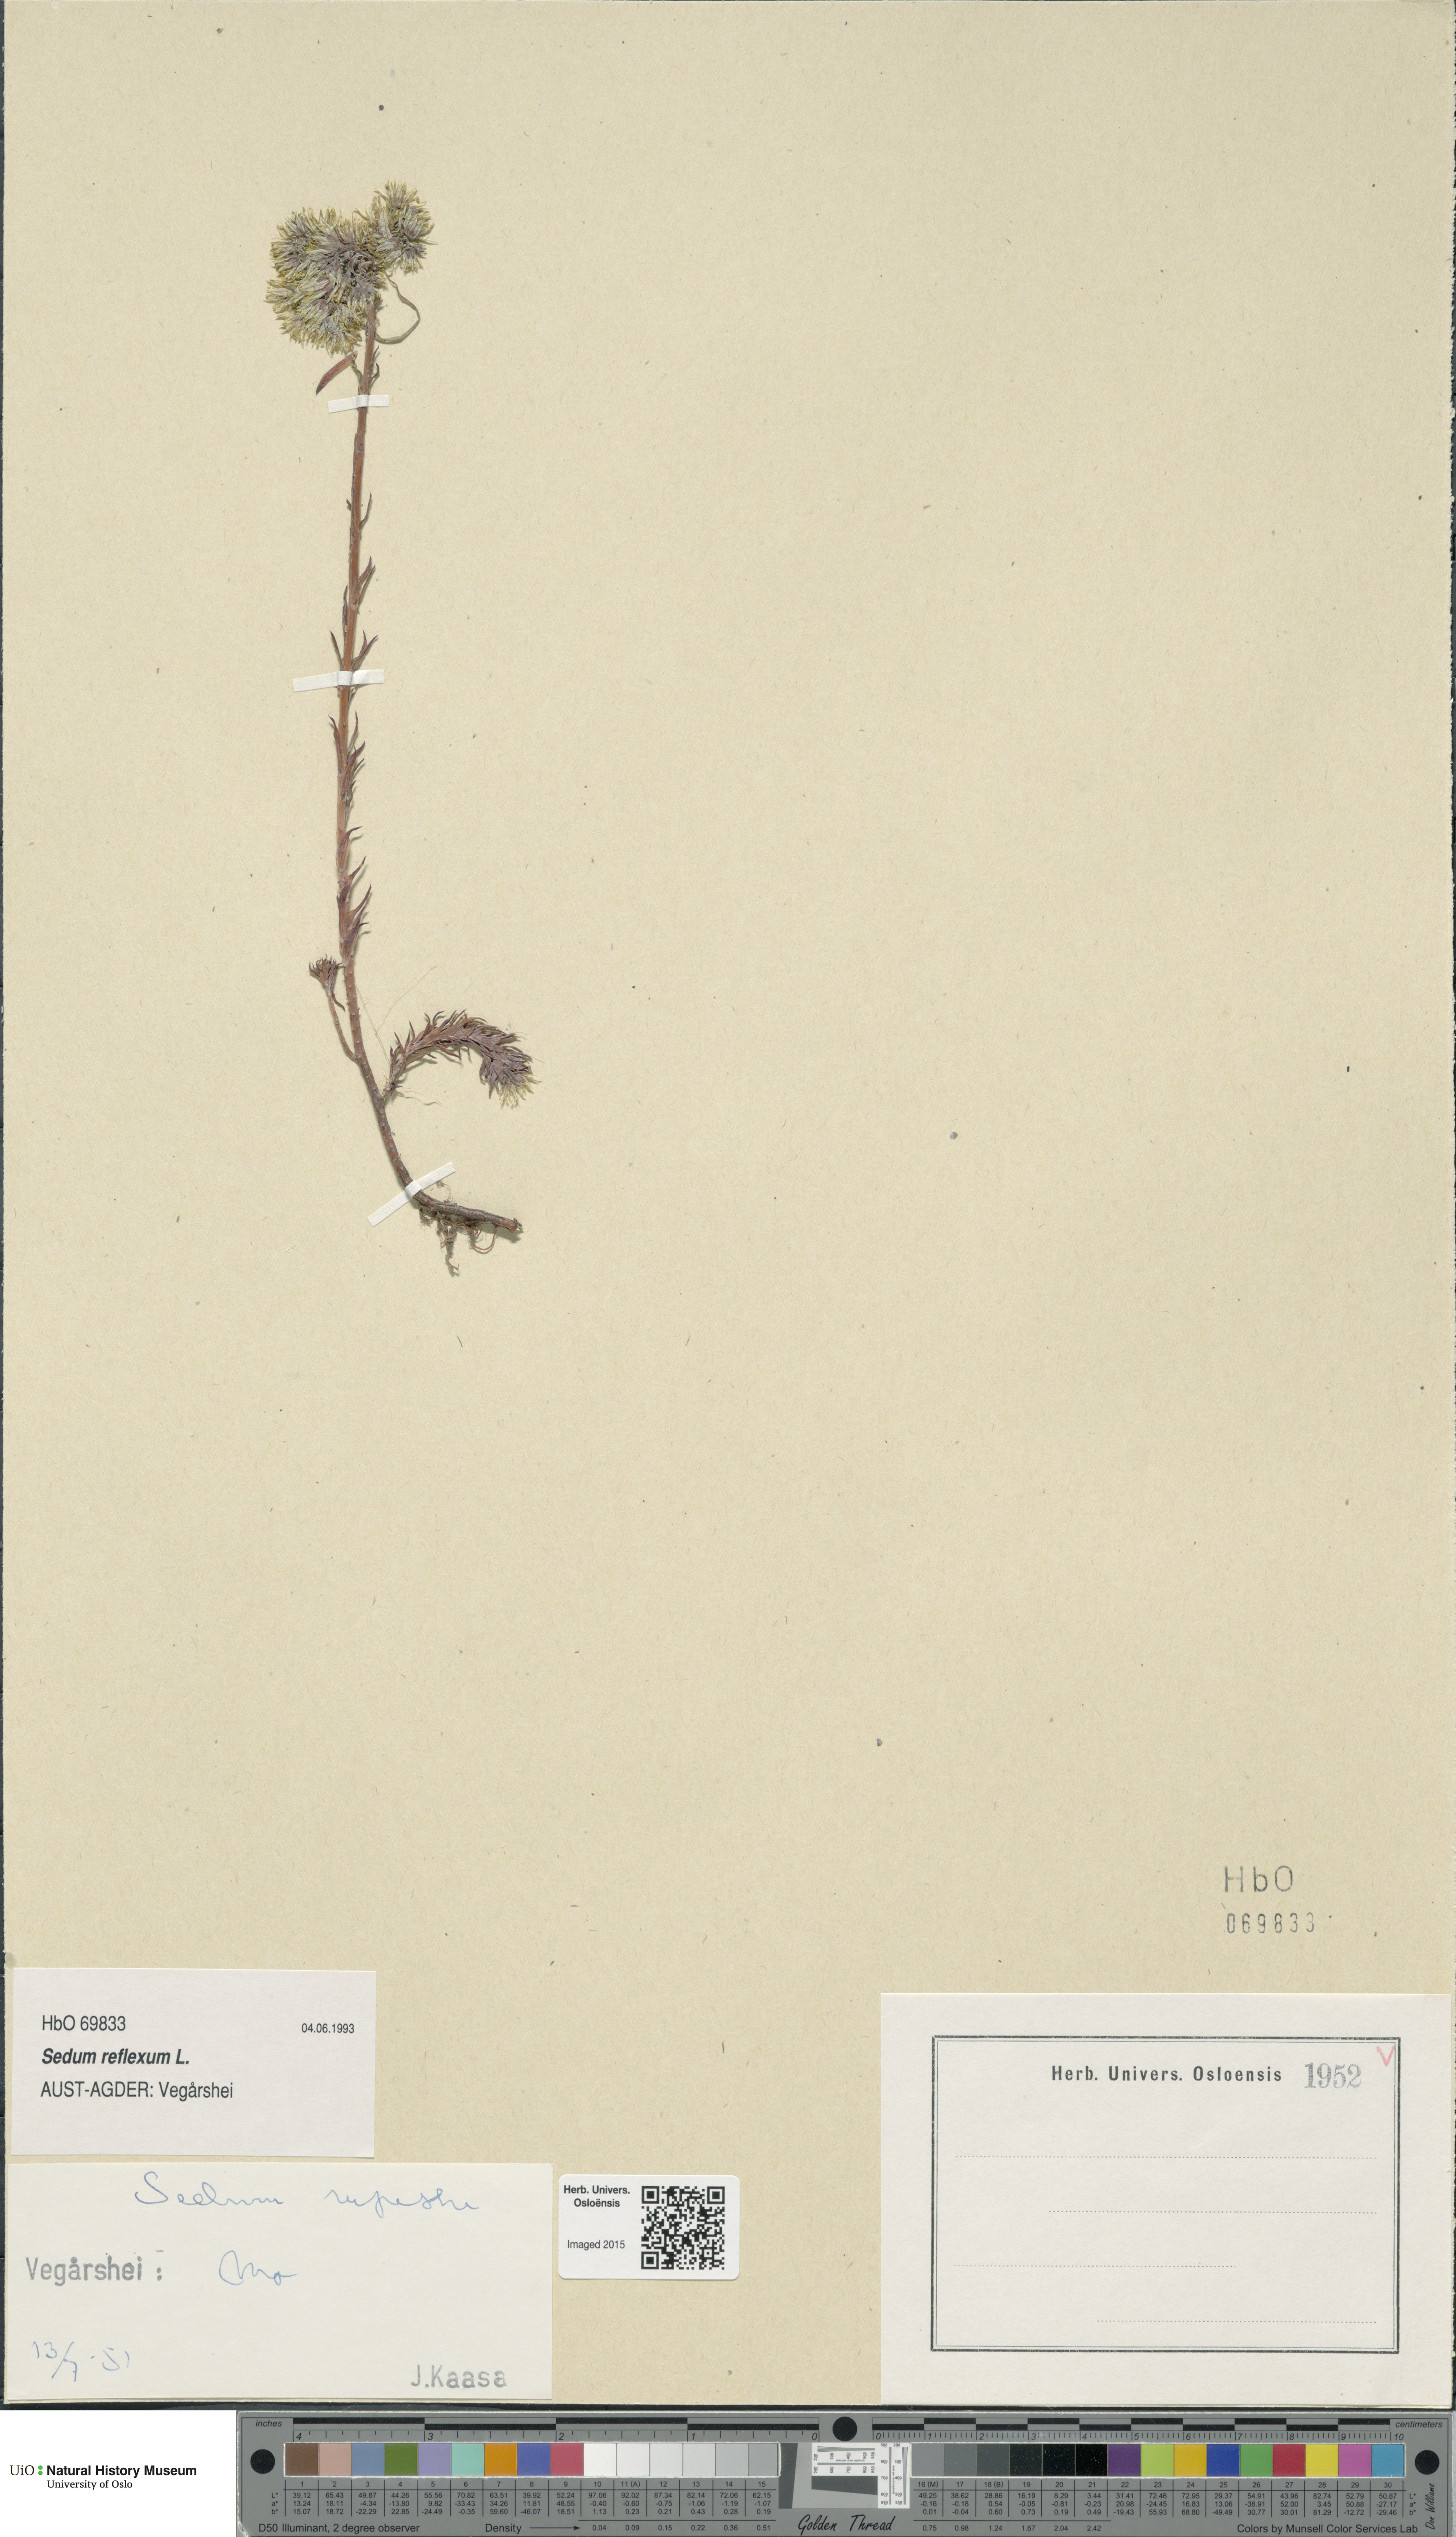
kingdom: Plantae
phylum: Tracheophyta
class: Magnoliopsida
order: Saxifragales
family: Crassulaceae
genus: Petrosedum
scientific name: Petrosedum rupestre
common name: Jenny's stonecrop
